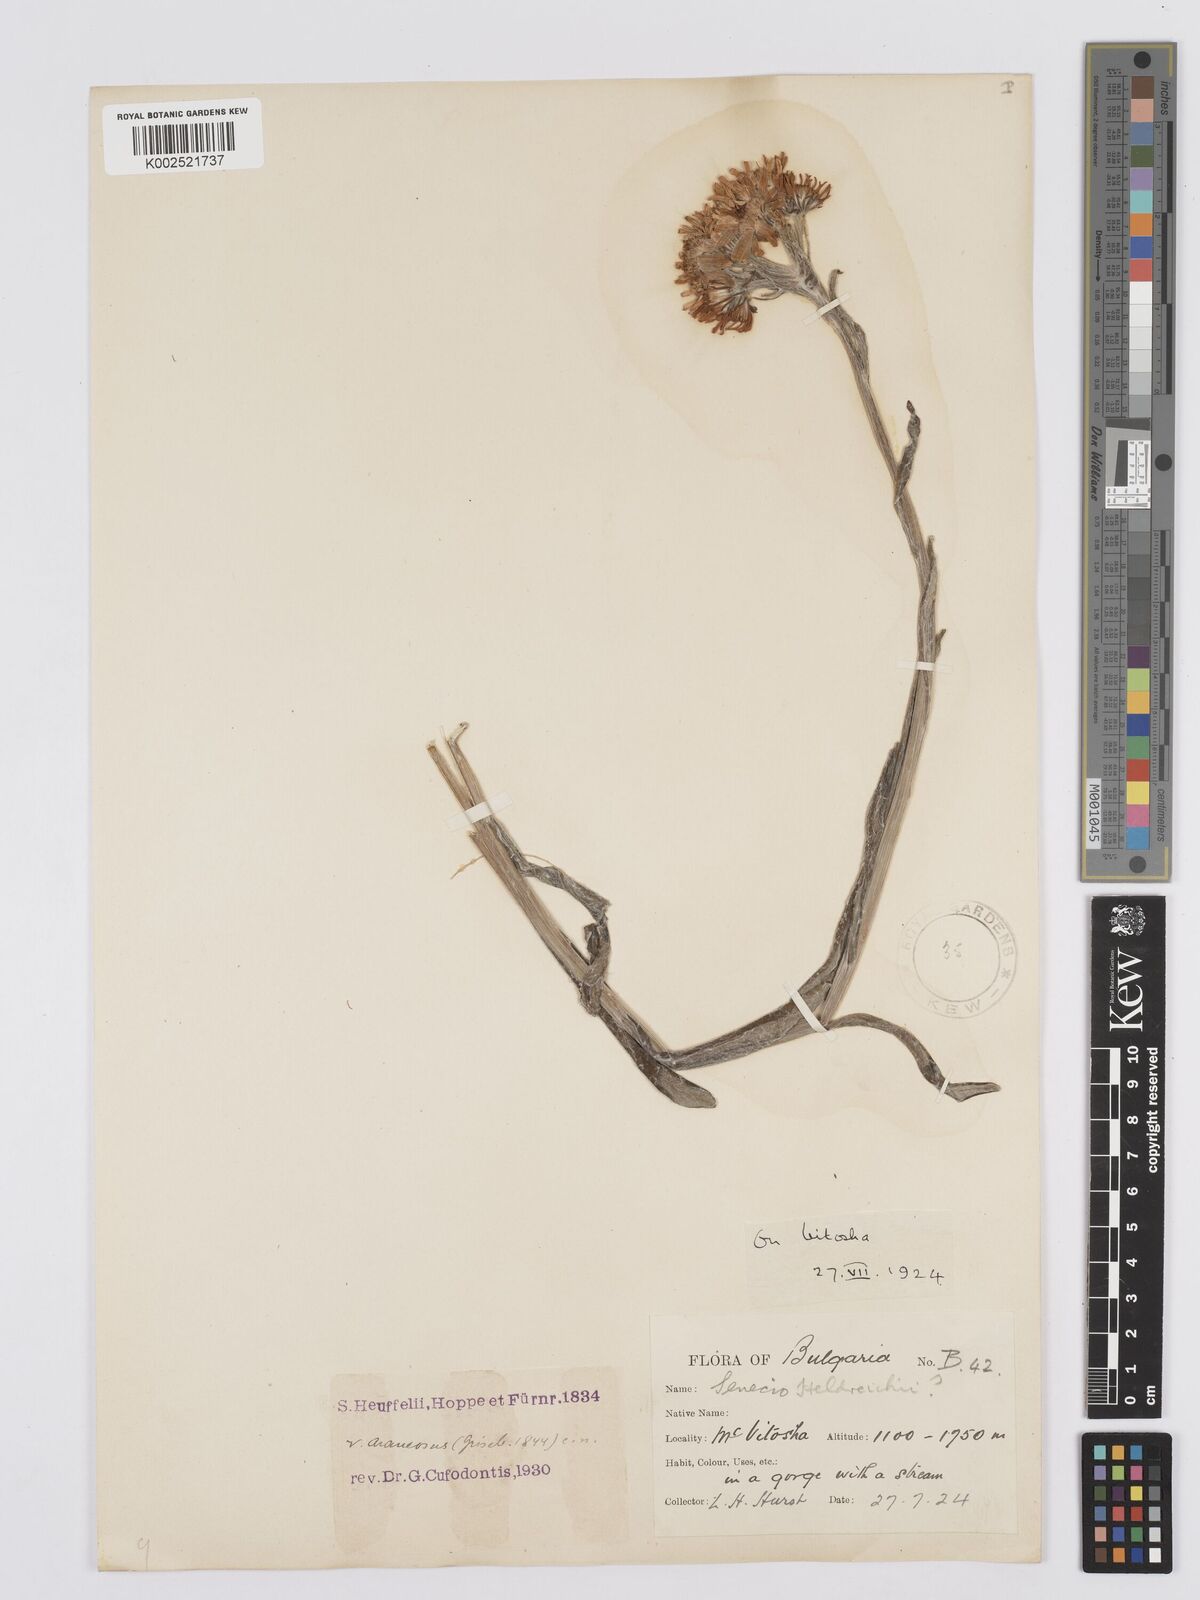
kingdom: Plantae
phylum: Tracheophyta
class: Magnoliopsida
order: Asterales
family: Asteraceae
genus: Tephroseris
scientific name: Tephroseris papposa
